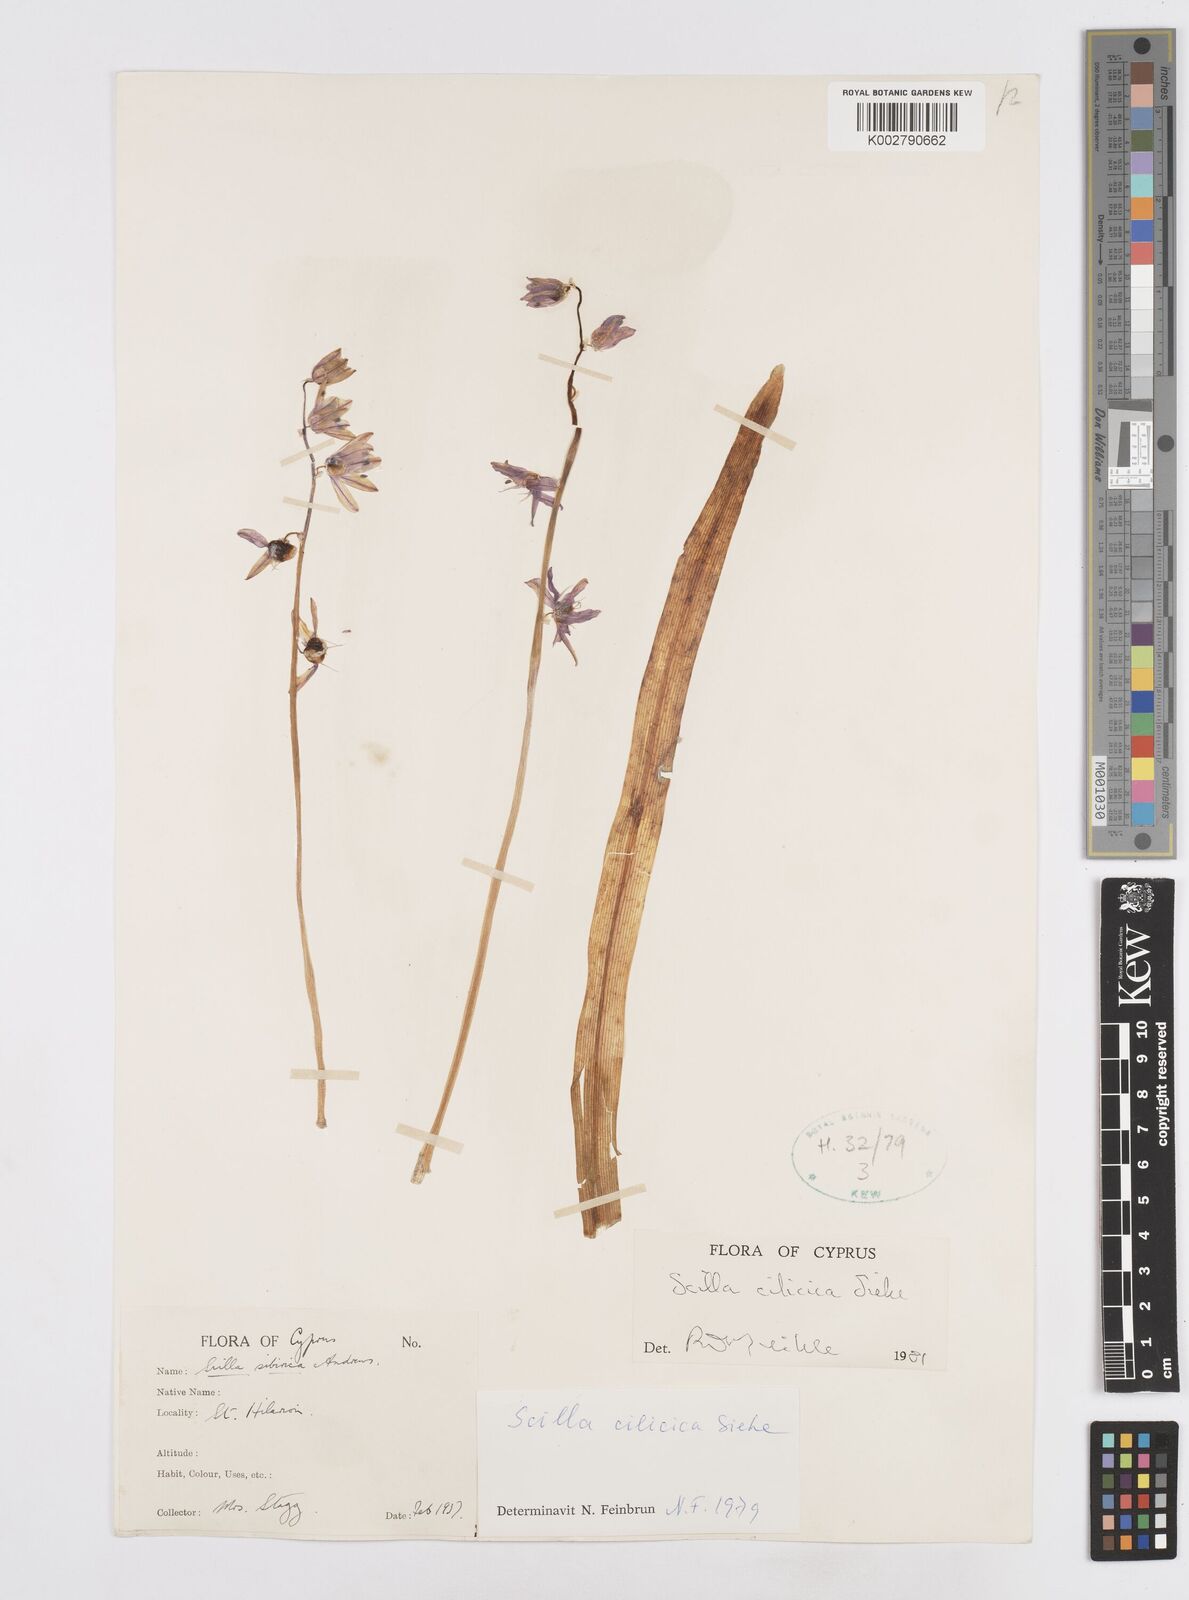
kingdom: Plantae
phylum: Tracheophyta
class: Liliopsida
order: Asparagales
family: Asparagaceae
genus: Scilla
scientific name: Scilla cilicica
